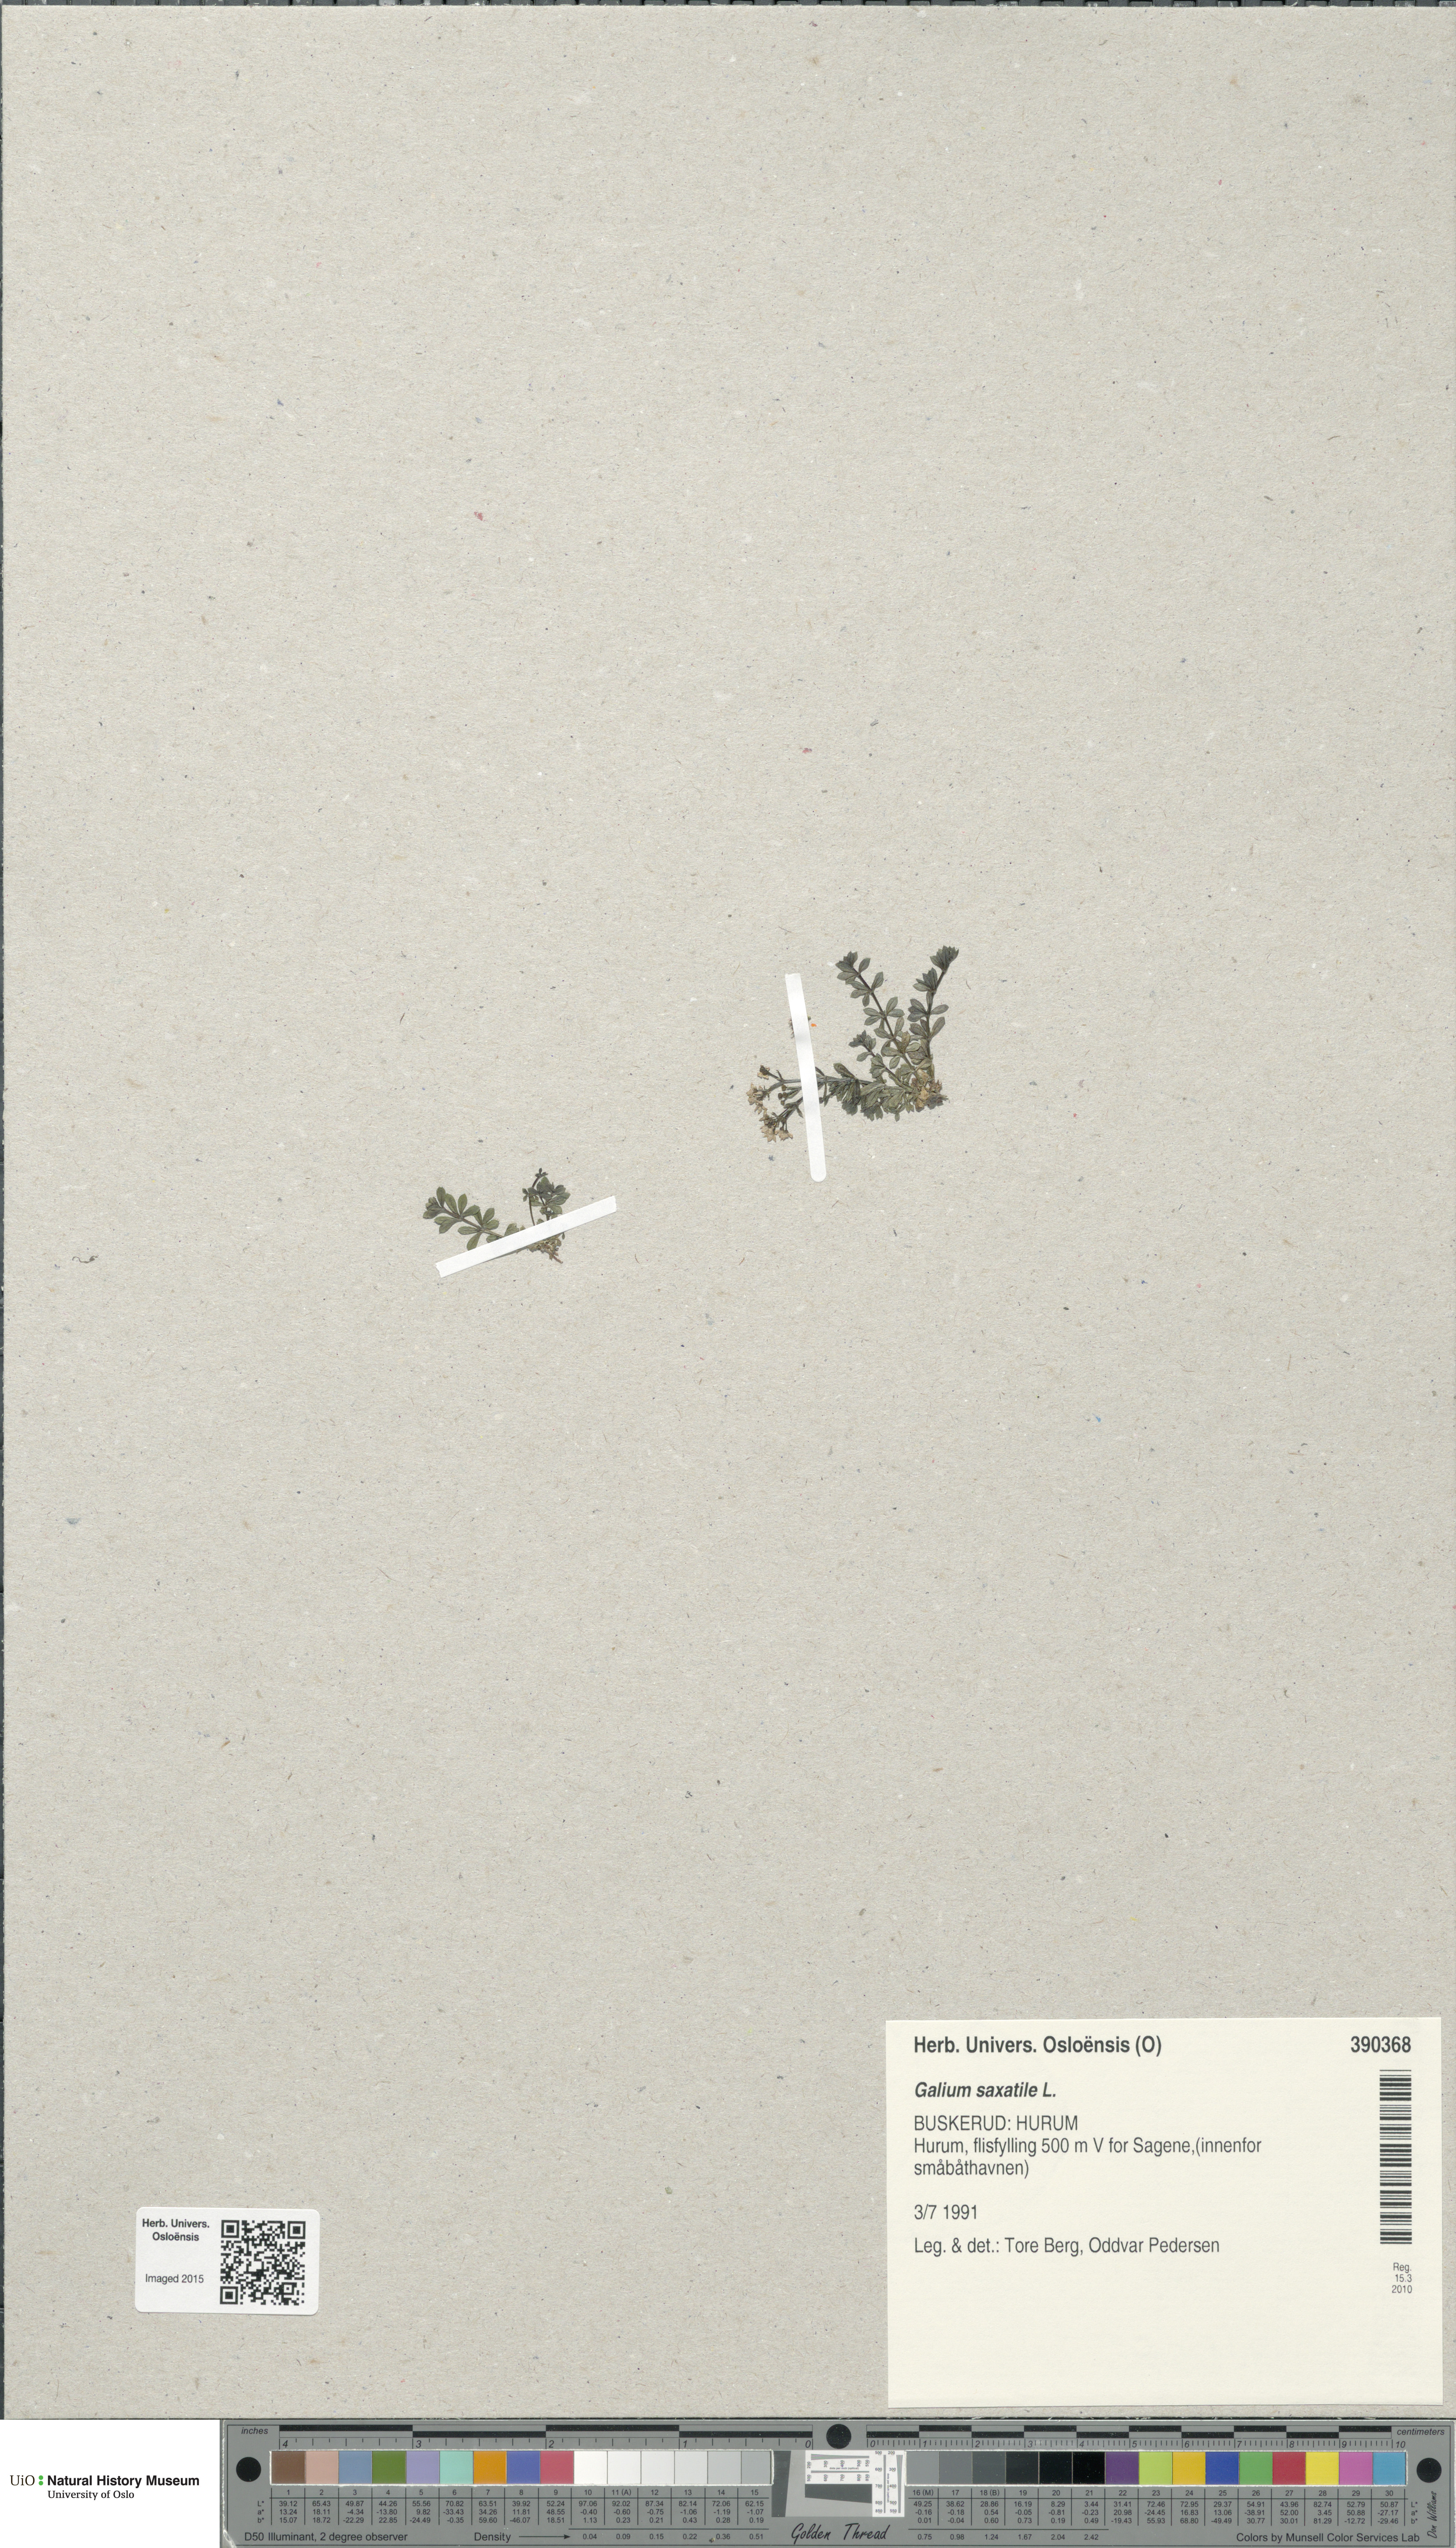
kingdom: Plantae
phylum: Tracheophyta
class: Magnoliopsida
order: Gentianales
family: Rubiaceae
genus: Galium
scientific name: Galium saxatile
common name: Heath bedstraw
